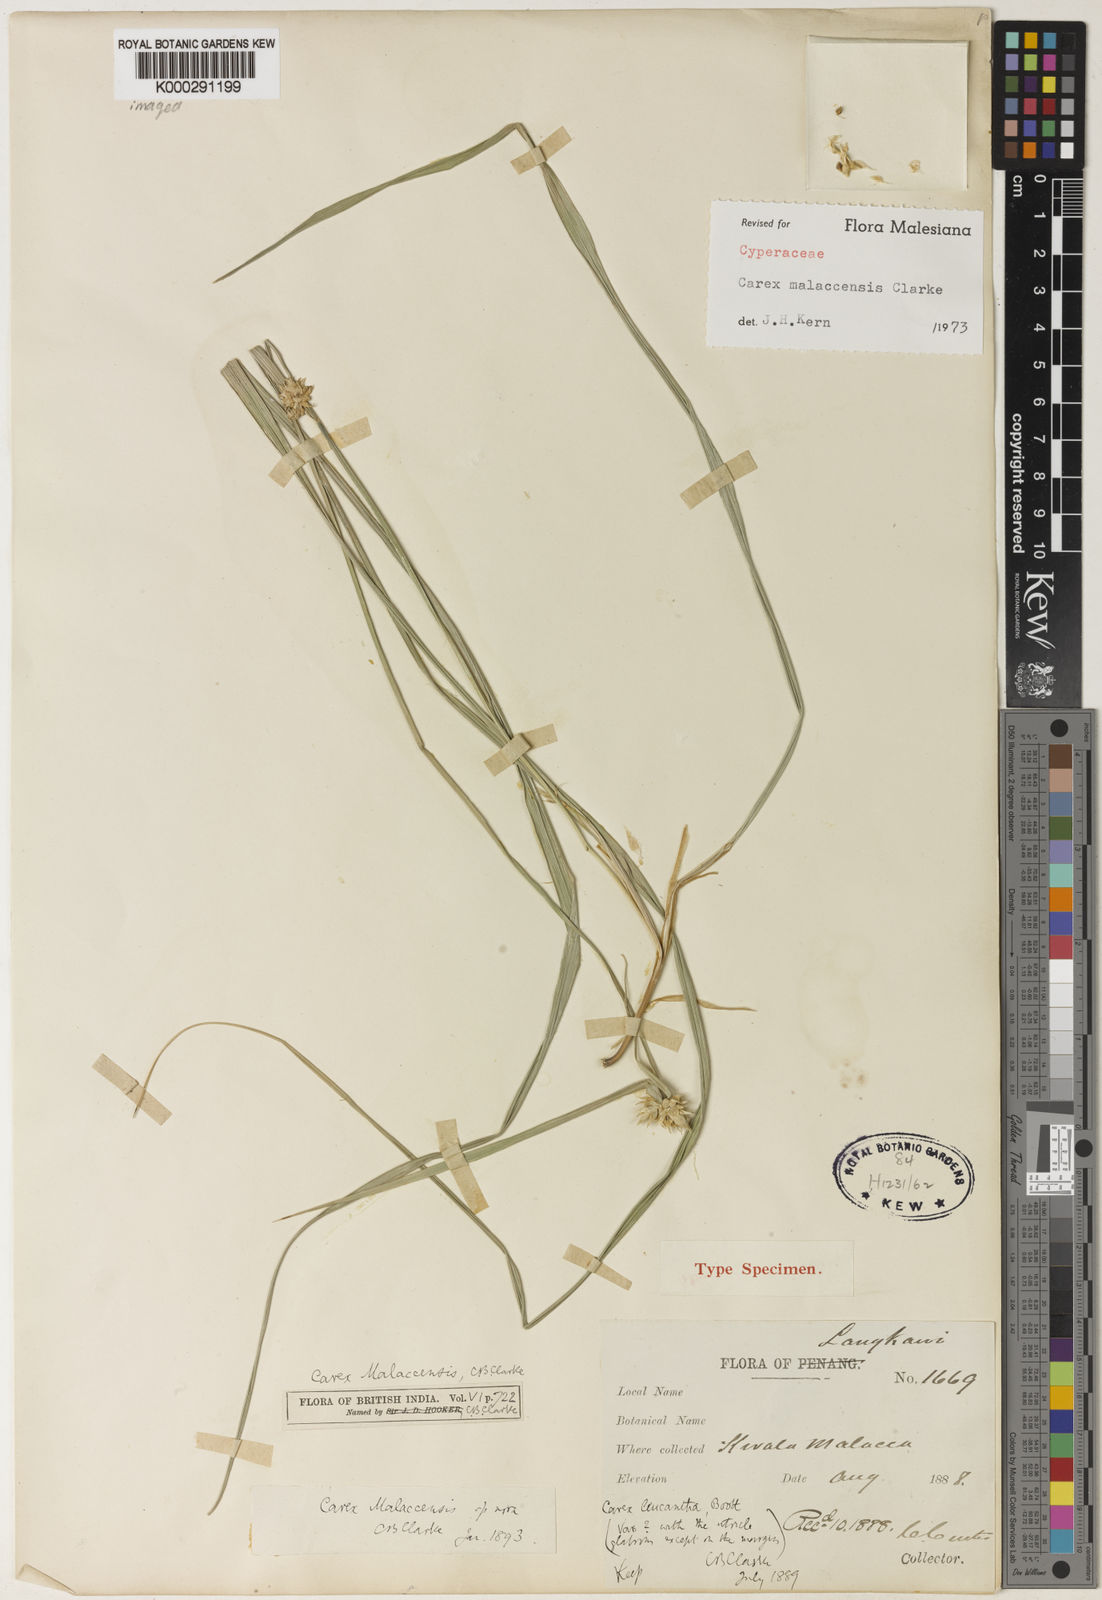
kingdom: Plantae
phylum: Tracheophyta
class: Liliopsida
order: Poales
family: Cyperaceae
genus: Carex
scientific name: Carex malaccensis
